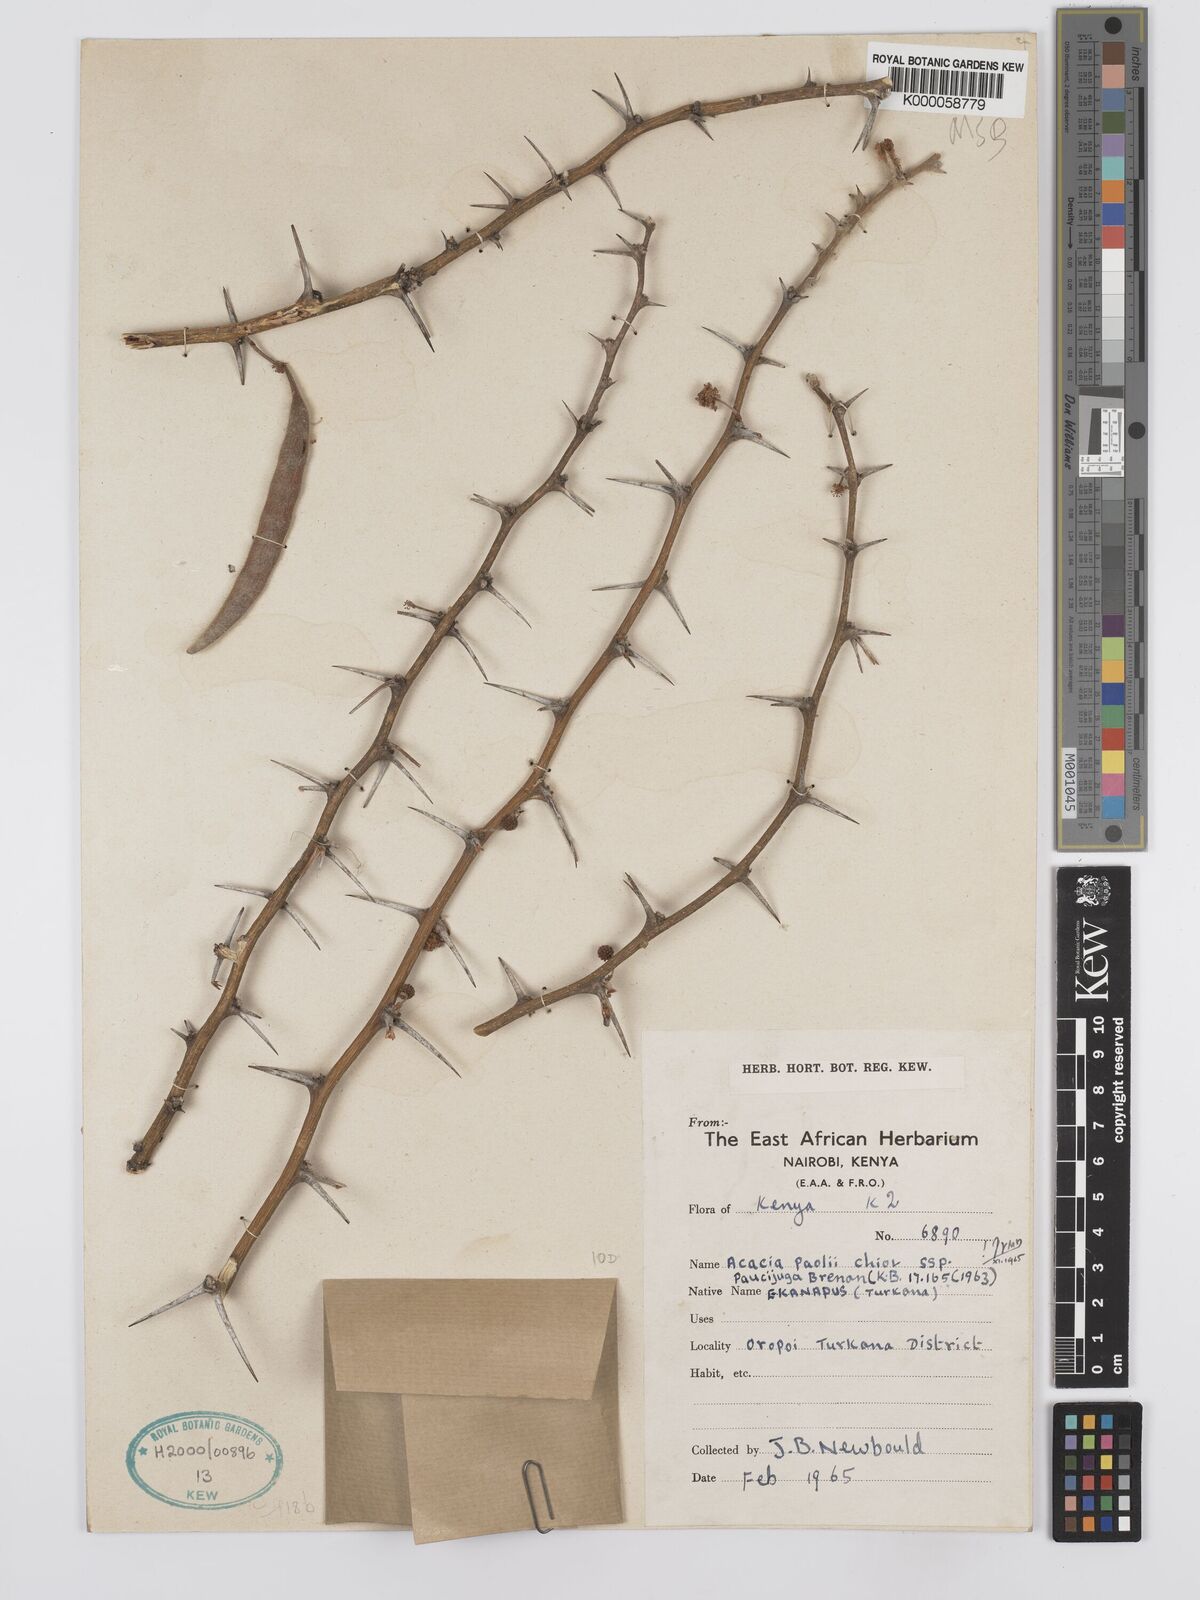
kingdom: Plantae
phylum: Tracheophyta
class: Magnoliopsida
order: Fabales
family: Fabaceae
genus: Vachellia
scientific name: Vachellia paolii
